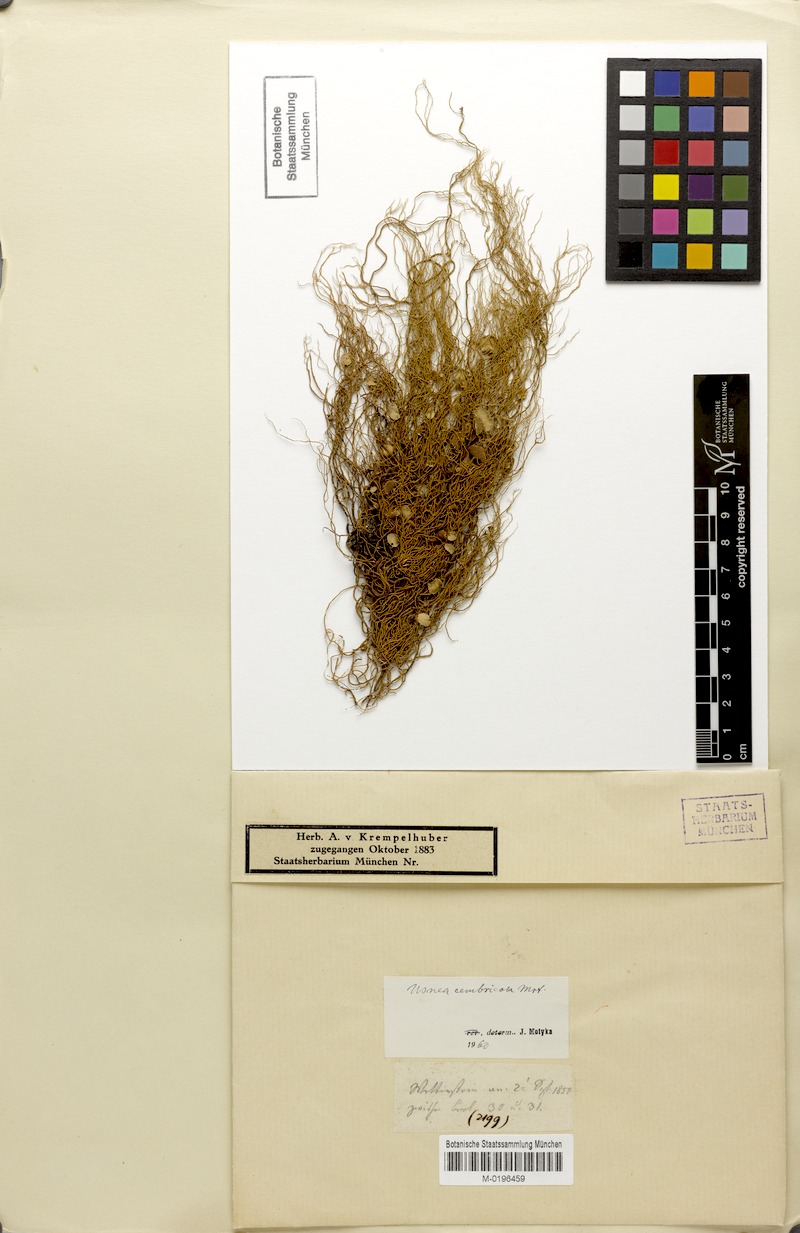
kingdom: Fungi
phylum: Ascomycota
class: Lecanoromycetes
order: Lecanorales
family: Parmeliaceae
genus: Usnea
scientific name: Usnea hirta
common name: Bristly beard lichen
